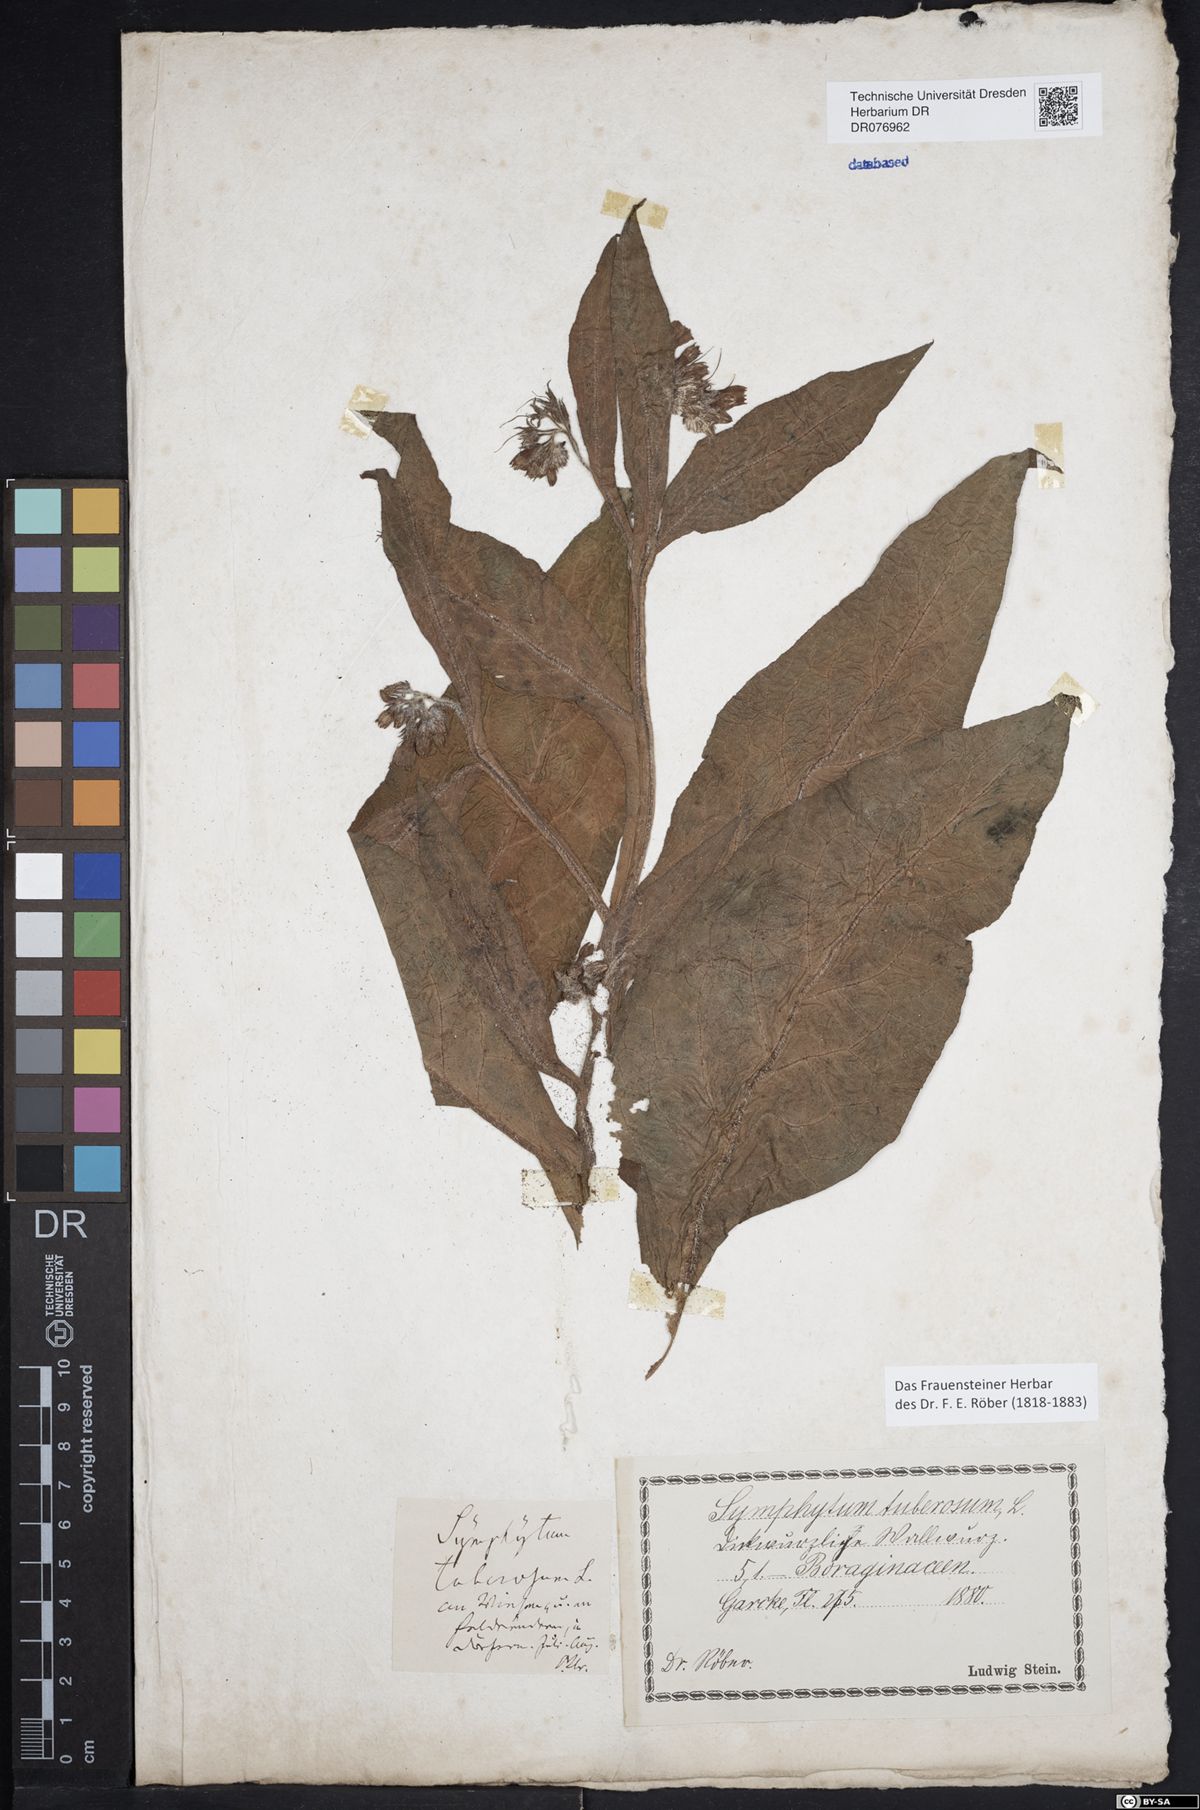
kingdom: Plantae
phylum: Tracheophyta
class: Magnoliopsida
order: Boraginales
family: Boraginaceae
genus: Symphytum
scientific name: Symphytum officinale
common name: Common comfrey
